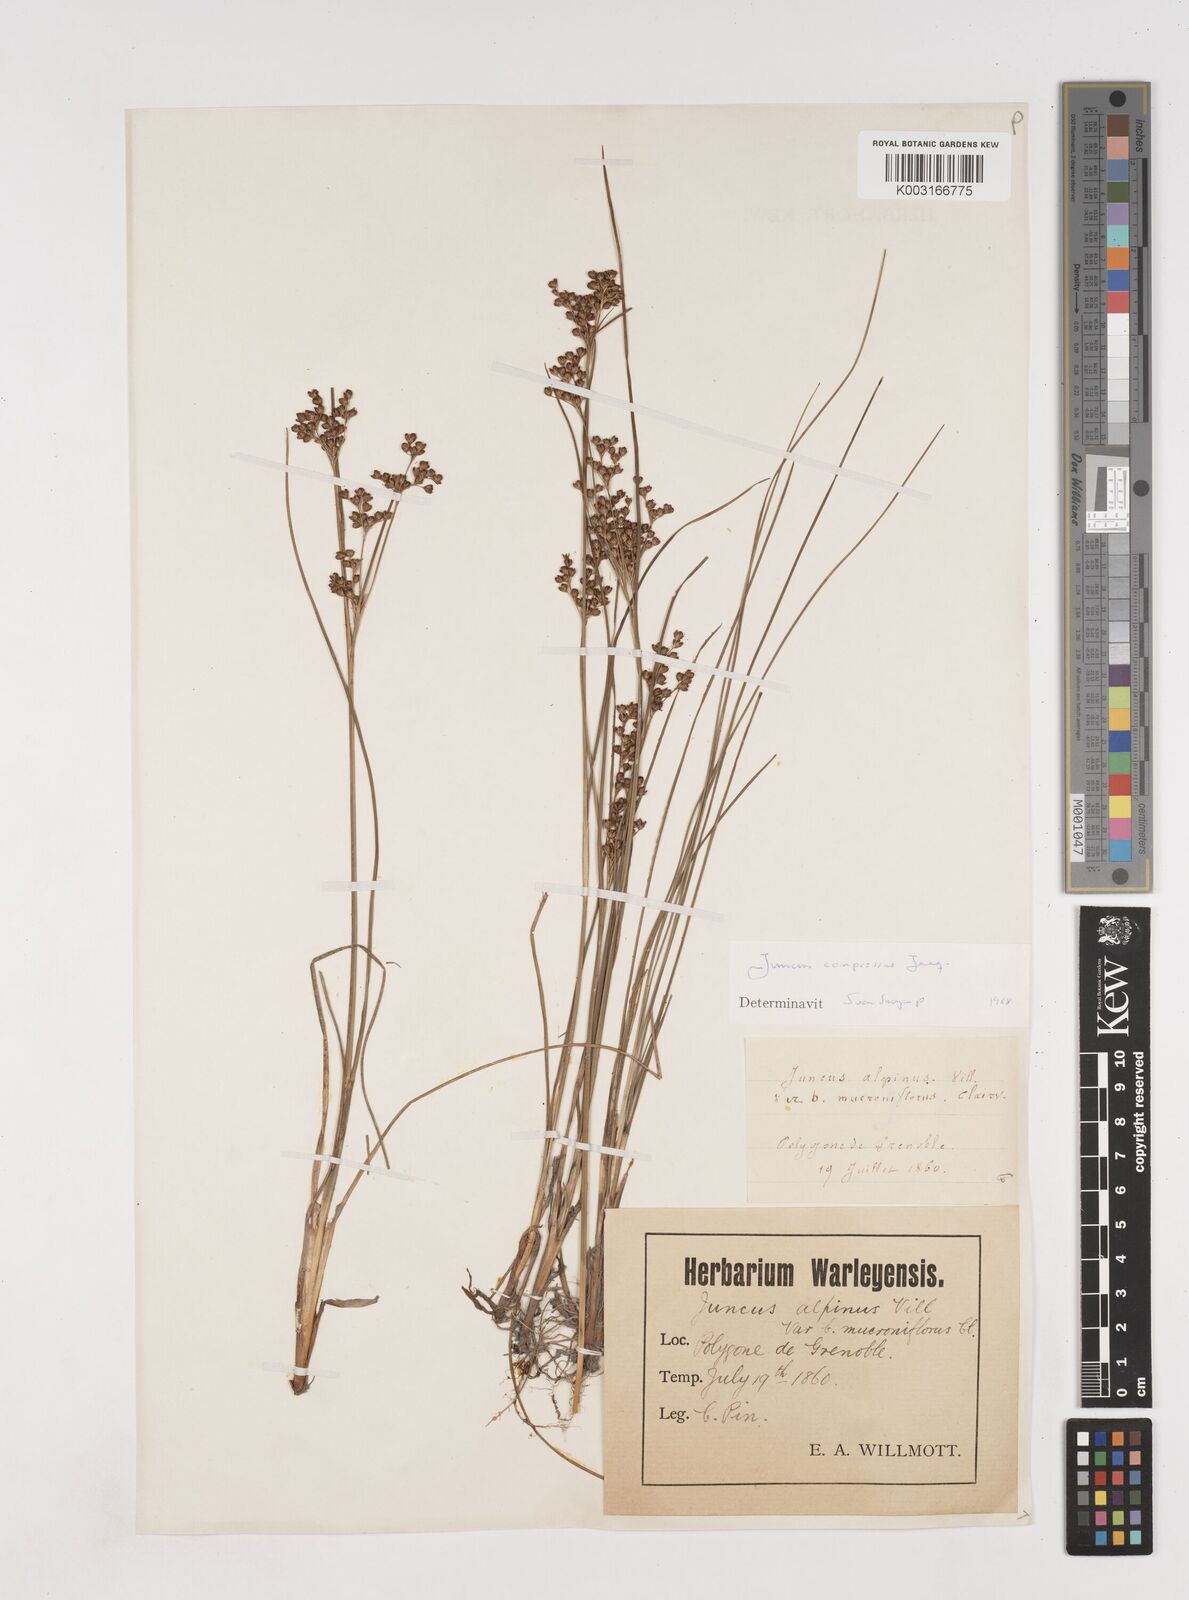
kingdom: Plantae
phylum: Tracheophyta
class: Liliopsida
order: Poales
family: Juncaceae
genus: Juncus
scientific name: Juncus compressus
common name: Round-fruited rush
